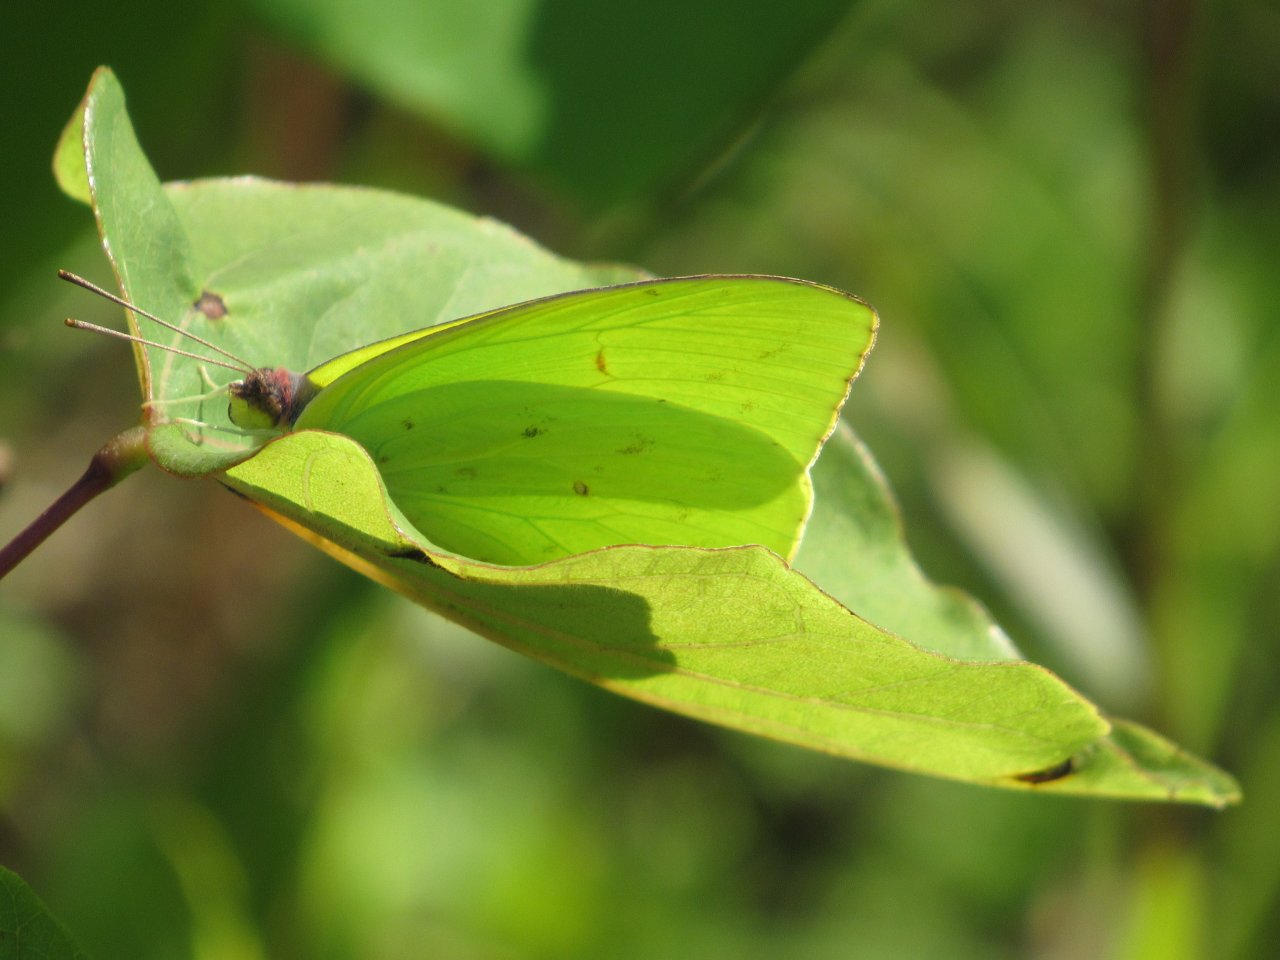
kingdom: Animalia
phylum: Arthropoda
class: Insecta
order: Lepidoptera
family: Pieridae
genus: Phoebis
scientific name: Phoebis sennae
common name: Cloudless Sulphur
